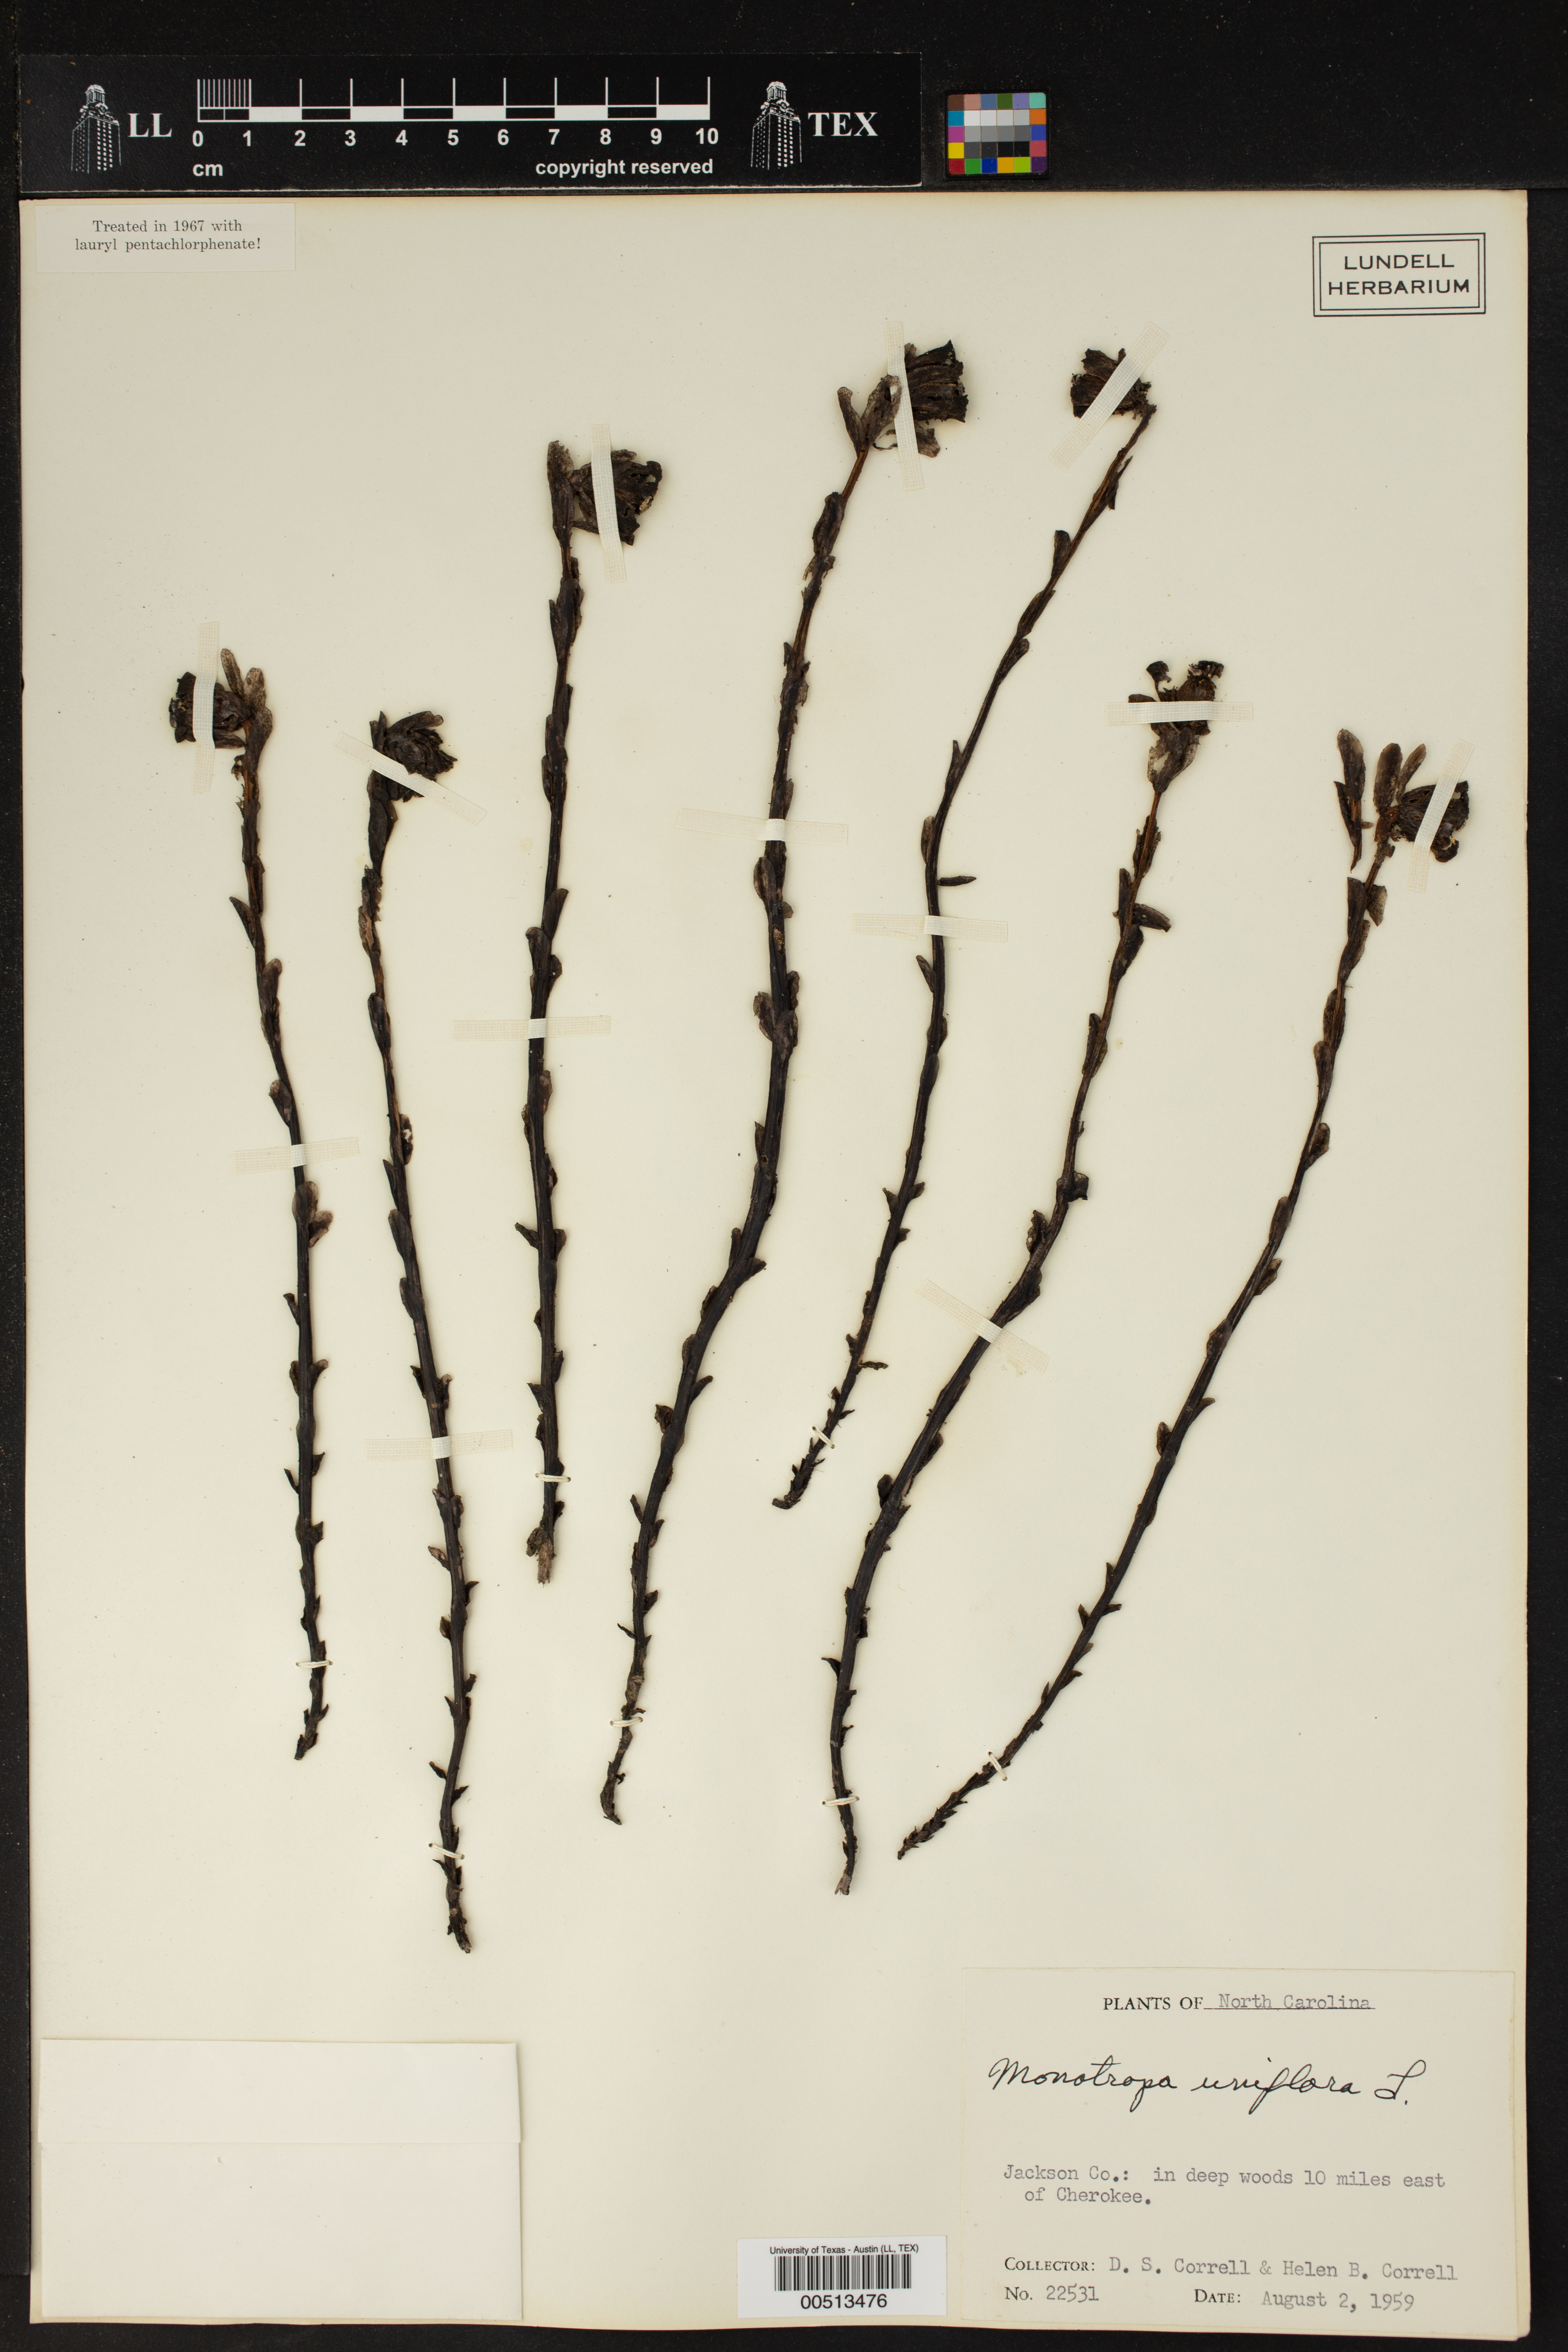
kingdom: Plantae
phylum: Tracheophyta
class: Magnoliopsida
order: Ericales
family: Ericaceae
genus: Monotropa
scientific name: Monotropa uniflora
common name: Convulsion root
